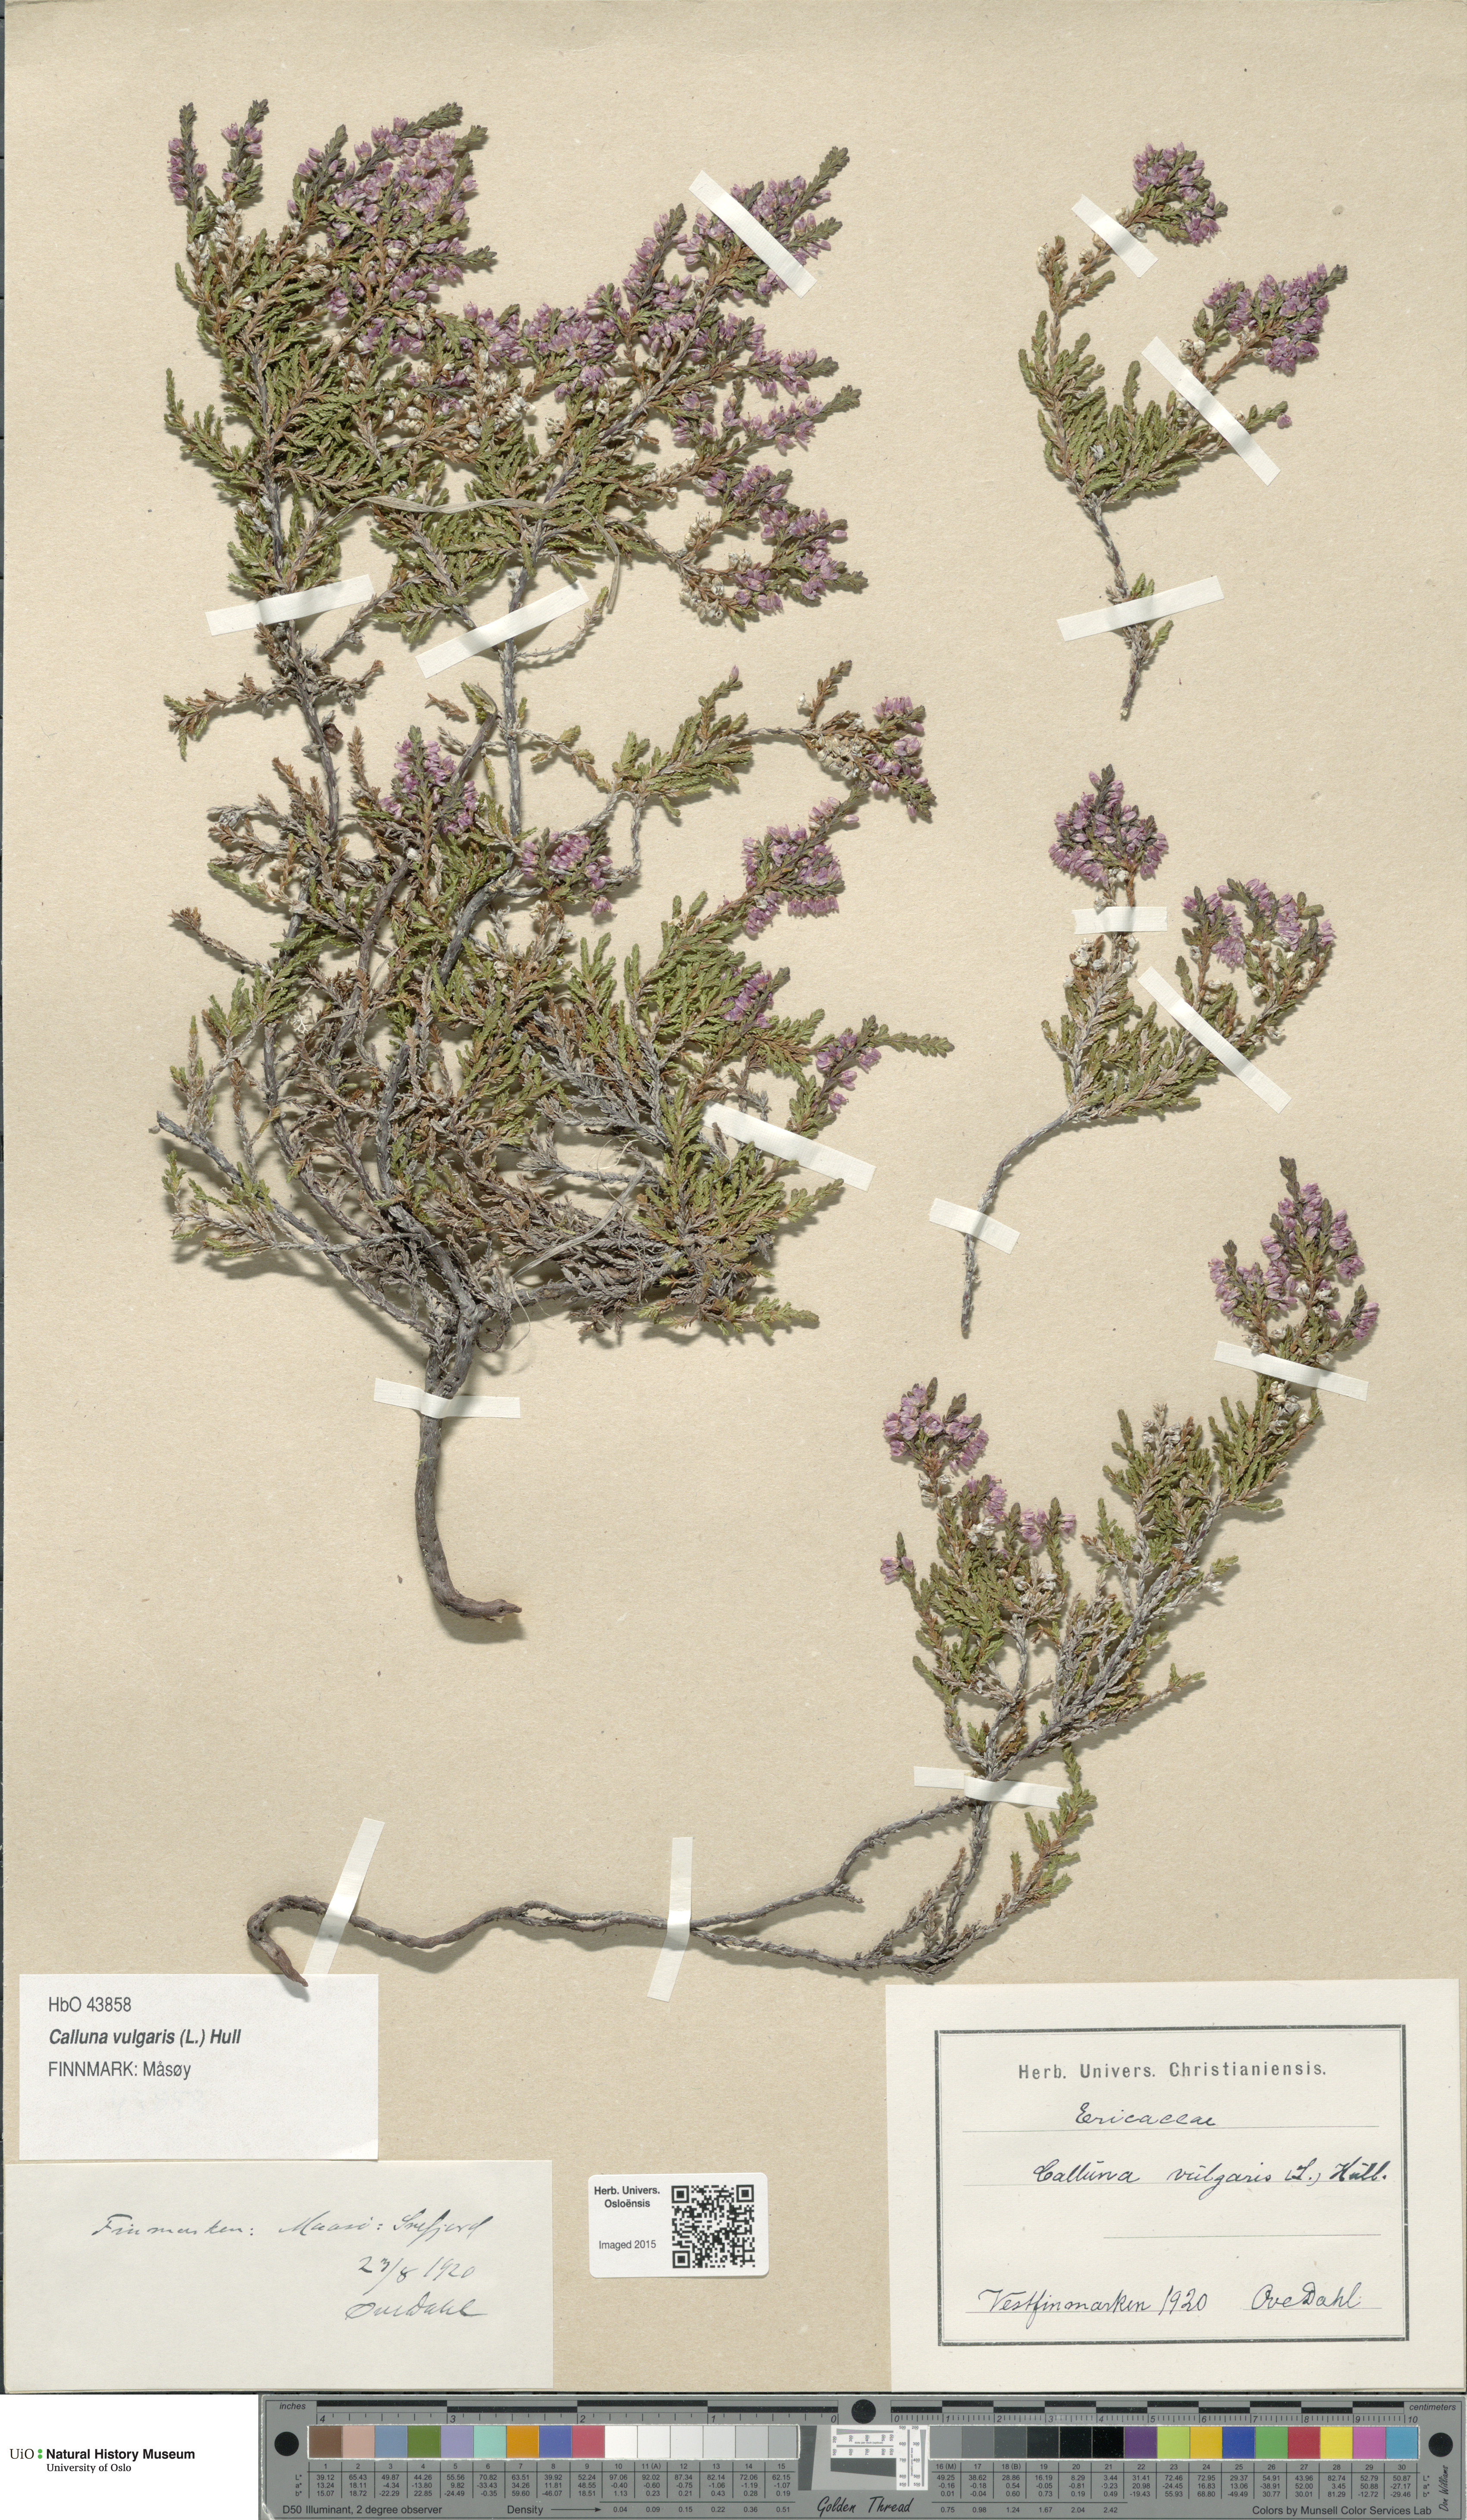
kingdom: Plantae
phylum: Tracheophyta
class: Magnoliopsida
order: Ericales
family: Ericaceae
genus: Calluna
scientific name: Calluna vulgaris
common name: Heather
